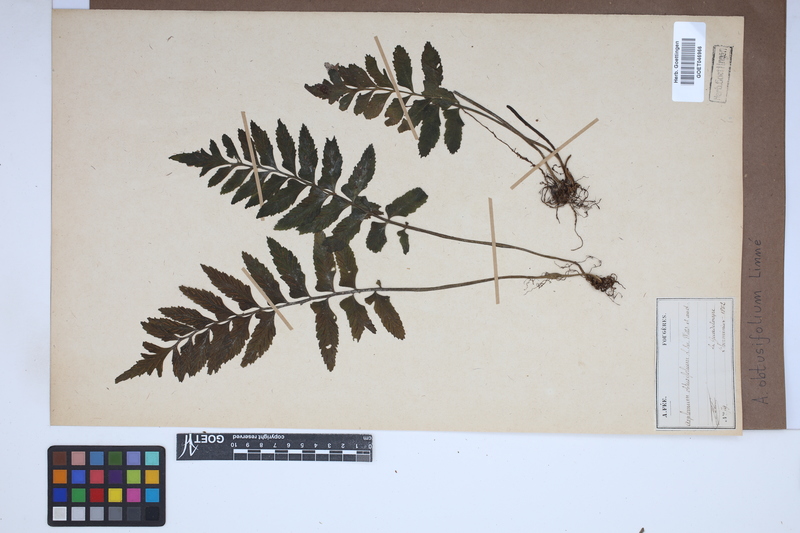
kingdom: Plantae
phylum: Tracheophyta
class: Polypodiopsida
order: Polypodiales
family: Aspleniaceae
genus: Hymenasplenium
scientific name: Hymenasplenium obtusifolium
